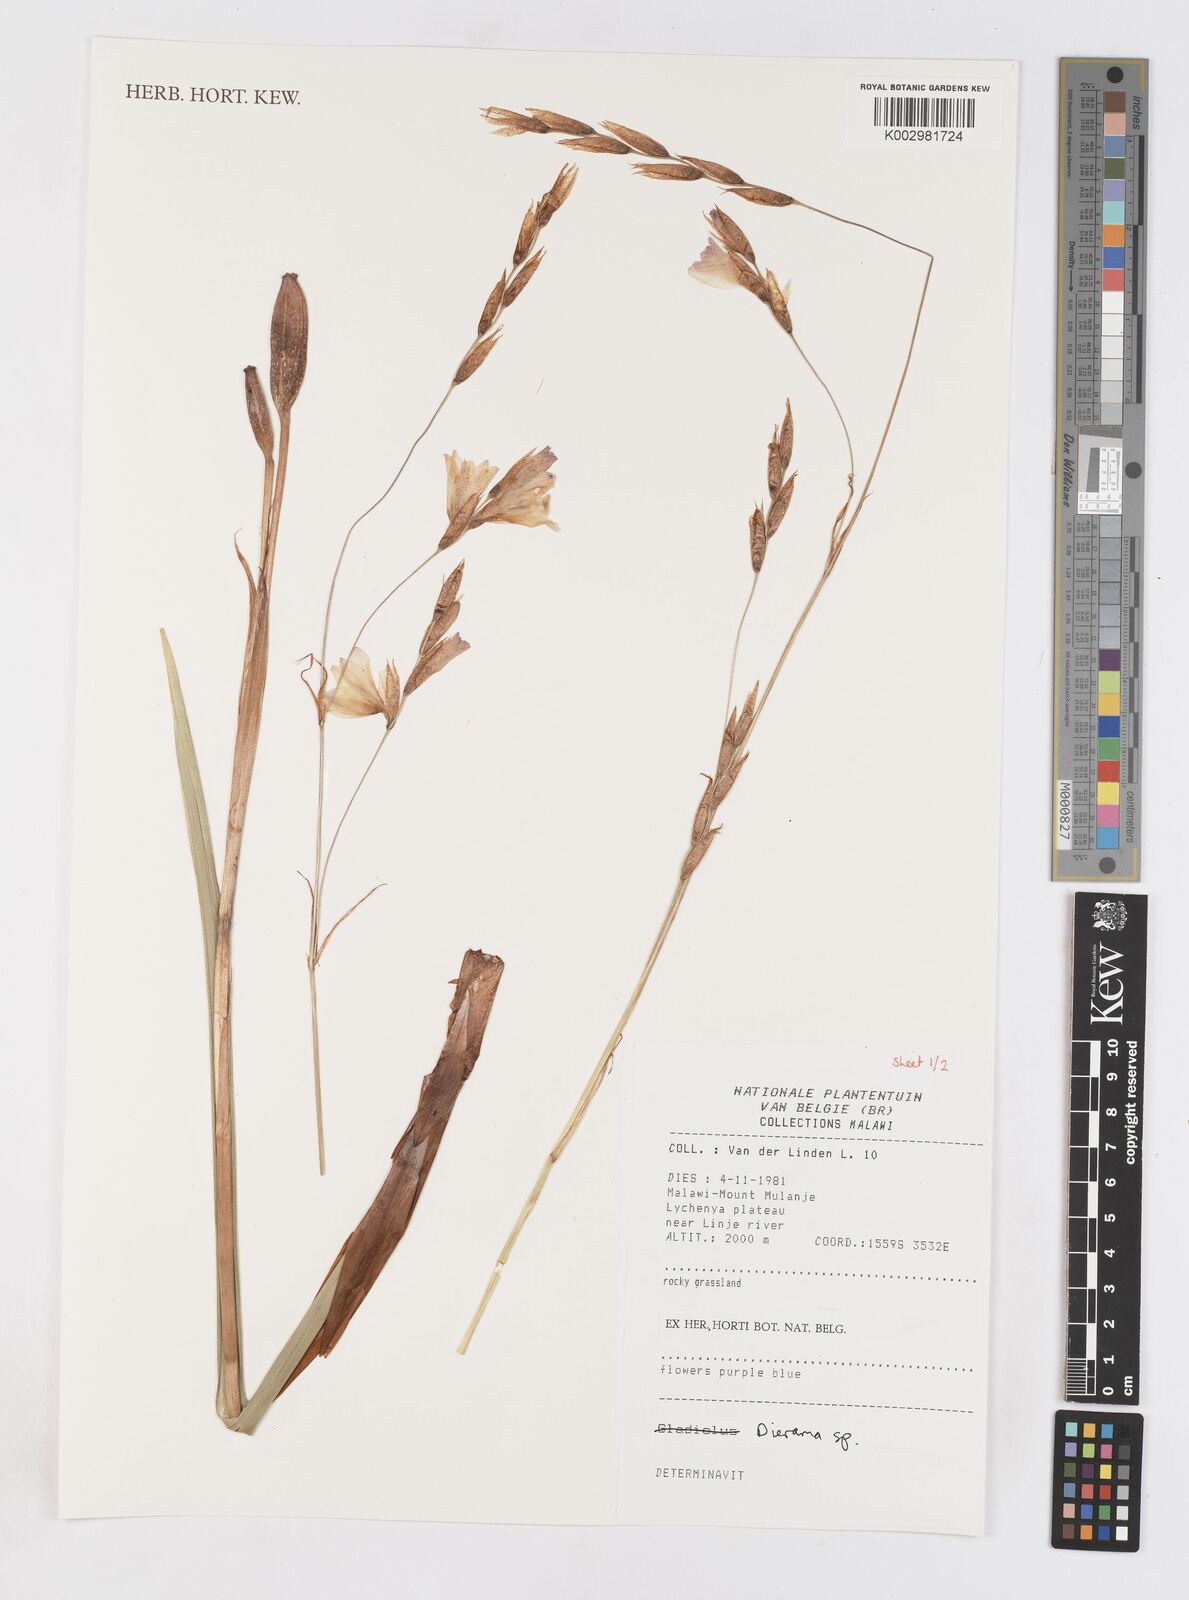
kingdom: Plantae
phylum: Tracheophyta
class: Liliopsida
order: Asparagales
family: Iridaceae
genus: Dierama
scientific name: Dierama
